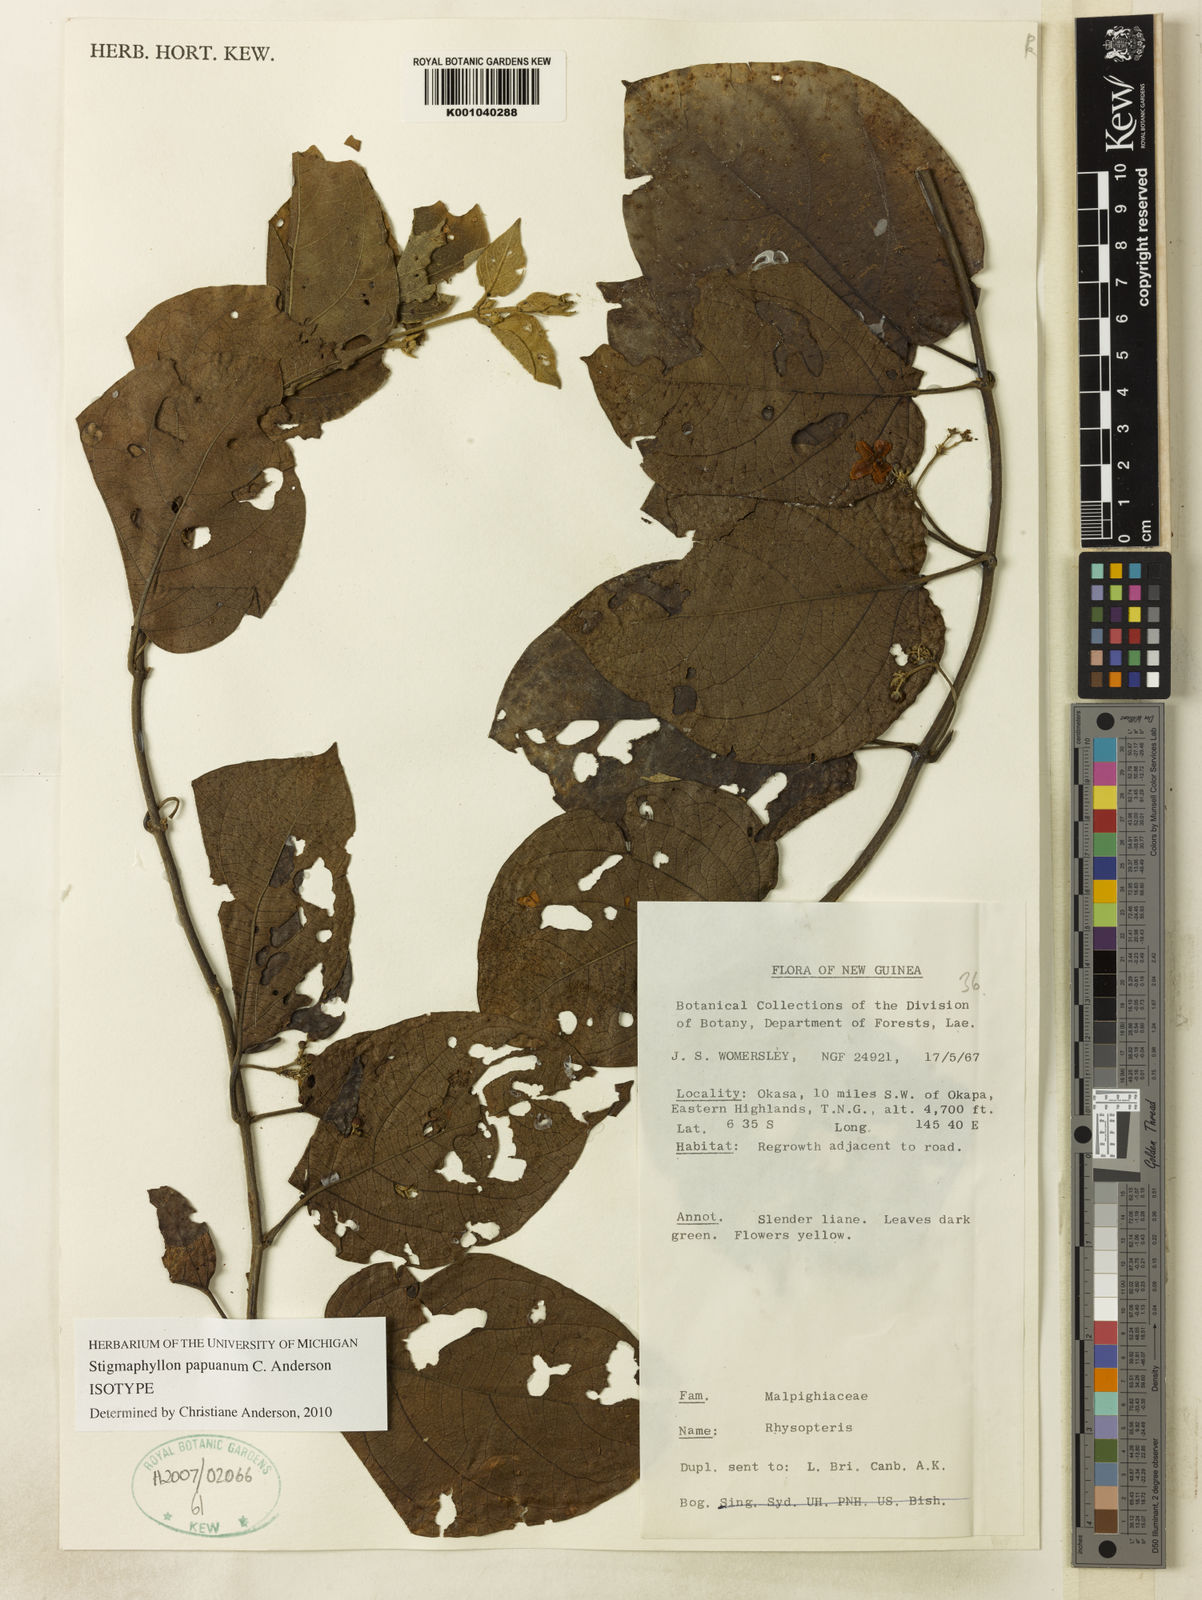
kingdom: Plantae
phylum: Tracheophyta
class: Magnoliopsida
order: Malpighiales
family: Malpighiaceae
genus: Stigmaphyllon
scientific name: Stigmaphyllon papuanum
